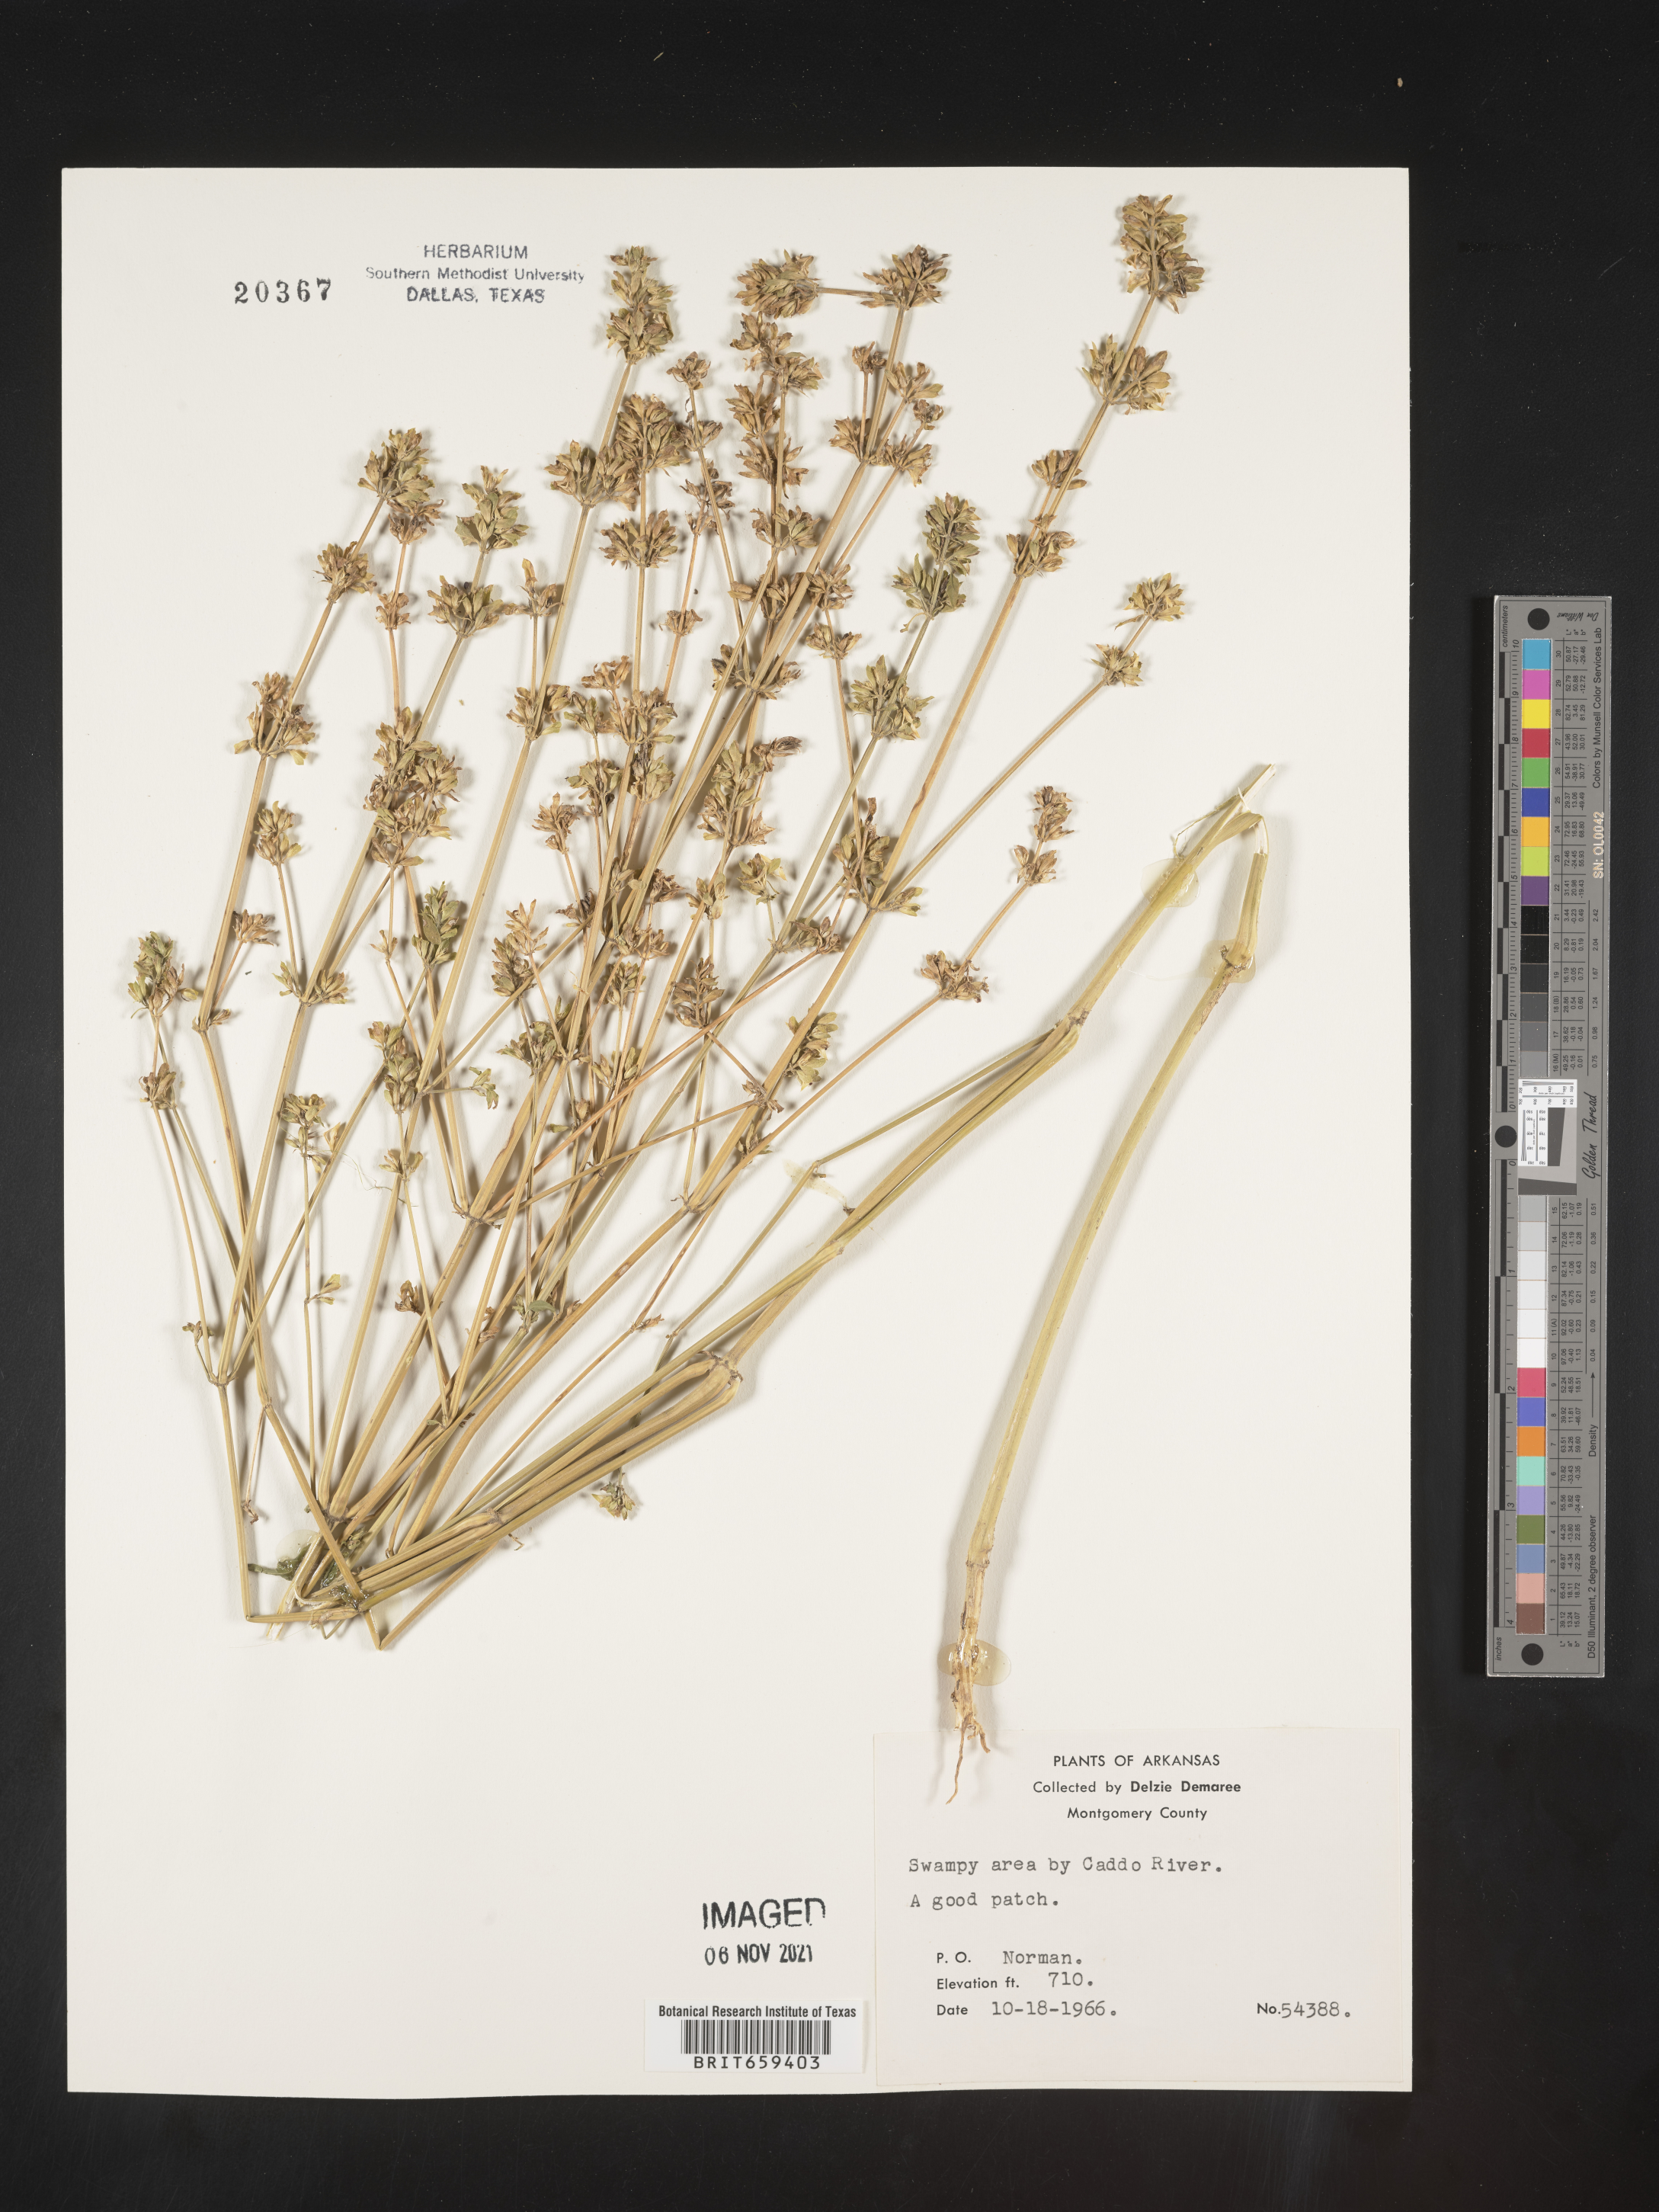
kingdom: Plantae
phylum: Tracheophyta
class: Magnoliopsida
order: Lamiales
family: Acanthaceae
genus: Dicliptera
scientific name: Dicliptera brachiata
